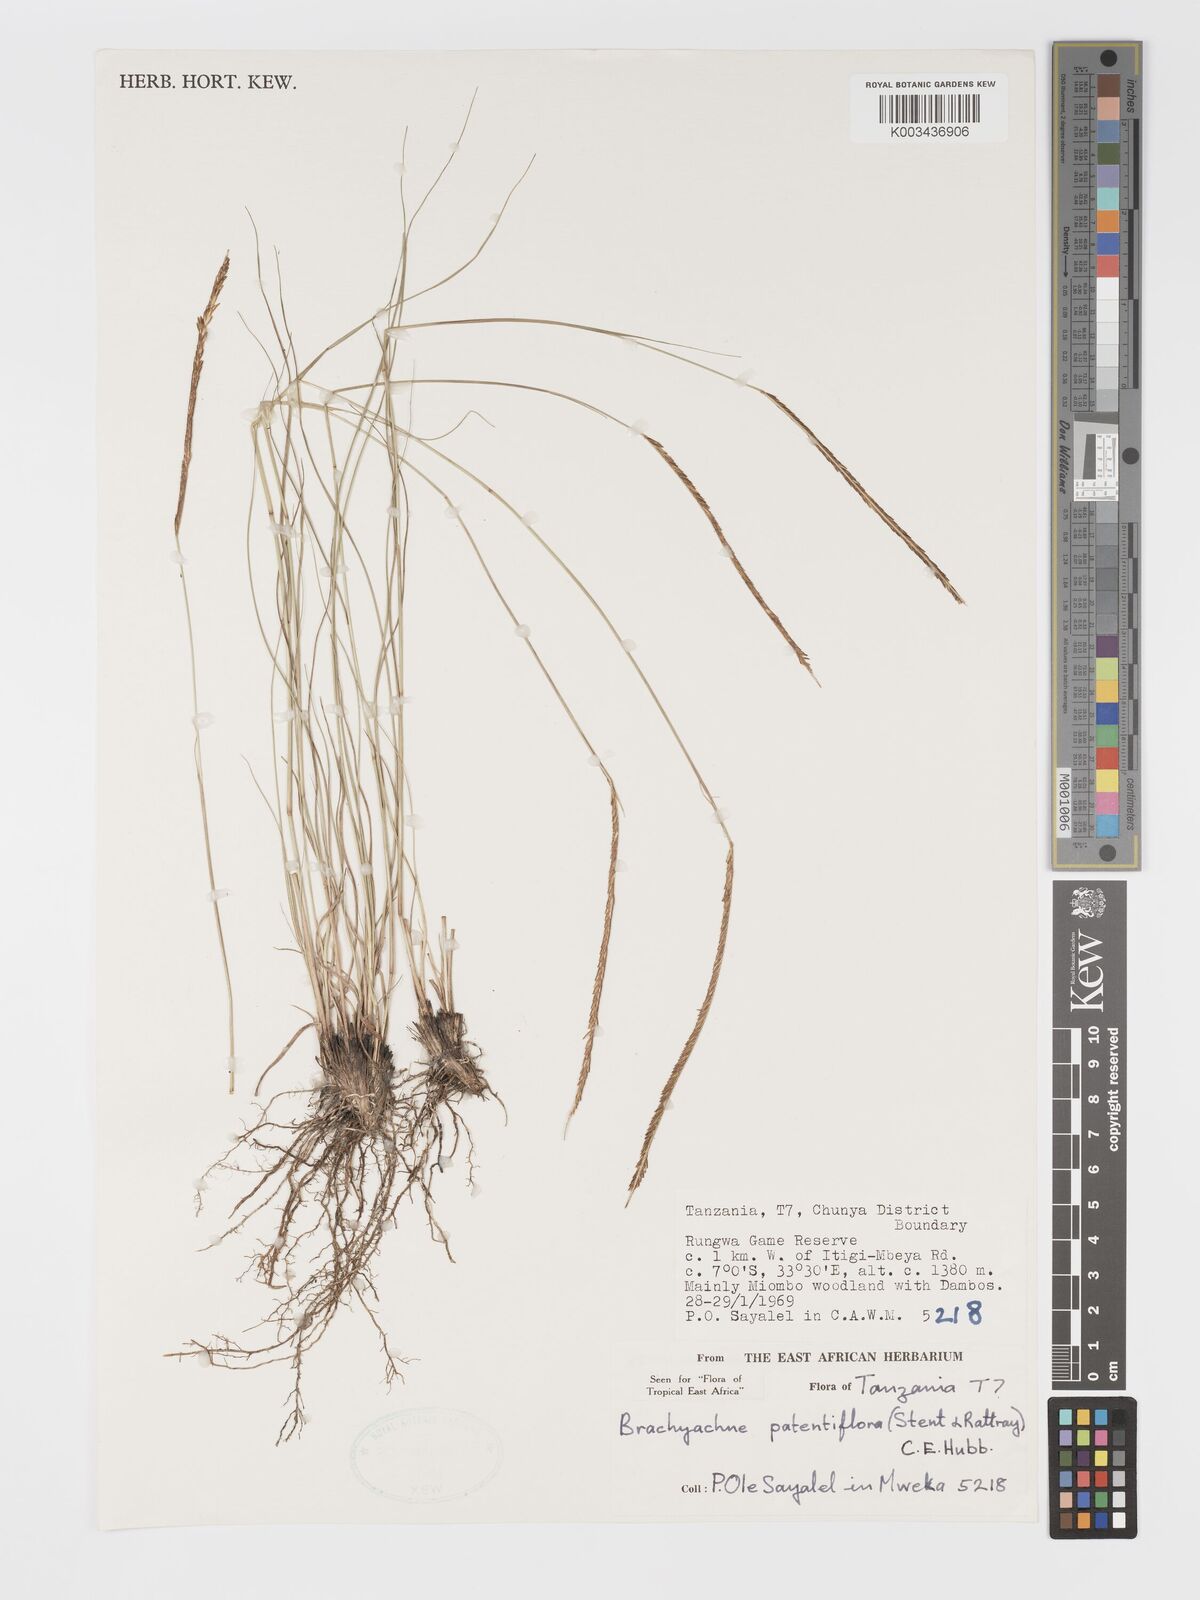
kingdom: Plantae
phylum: Tracheophyta
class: Liliopsida
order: Poales
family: Poaceae
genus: Micrachne
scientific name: Micrachne patentiflora
